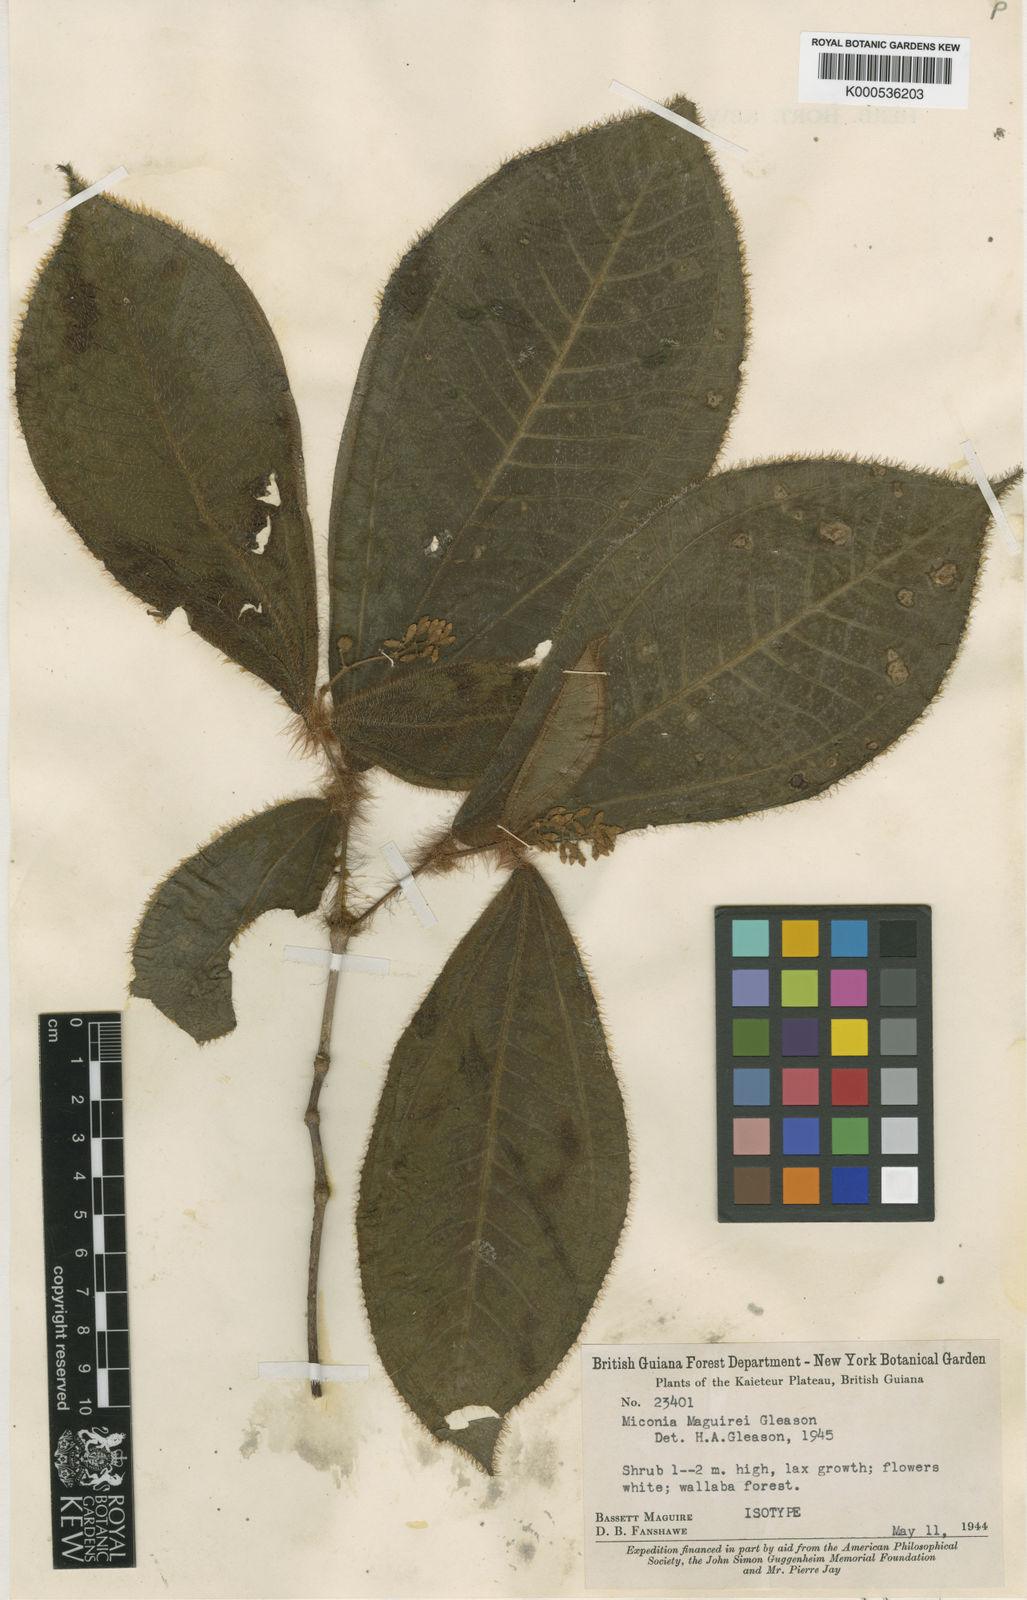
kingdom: Plantae
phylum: Tracheophyta
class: Magnoliopsida
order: Myrtales
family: Melastomataceae
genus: Miconia
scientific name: Miconia maguirei
